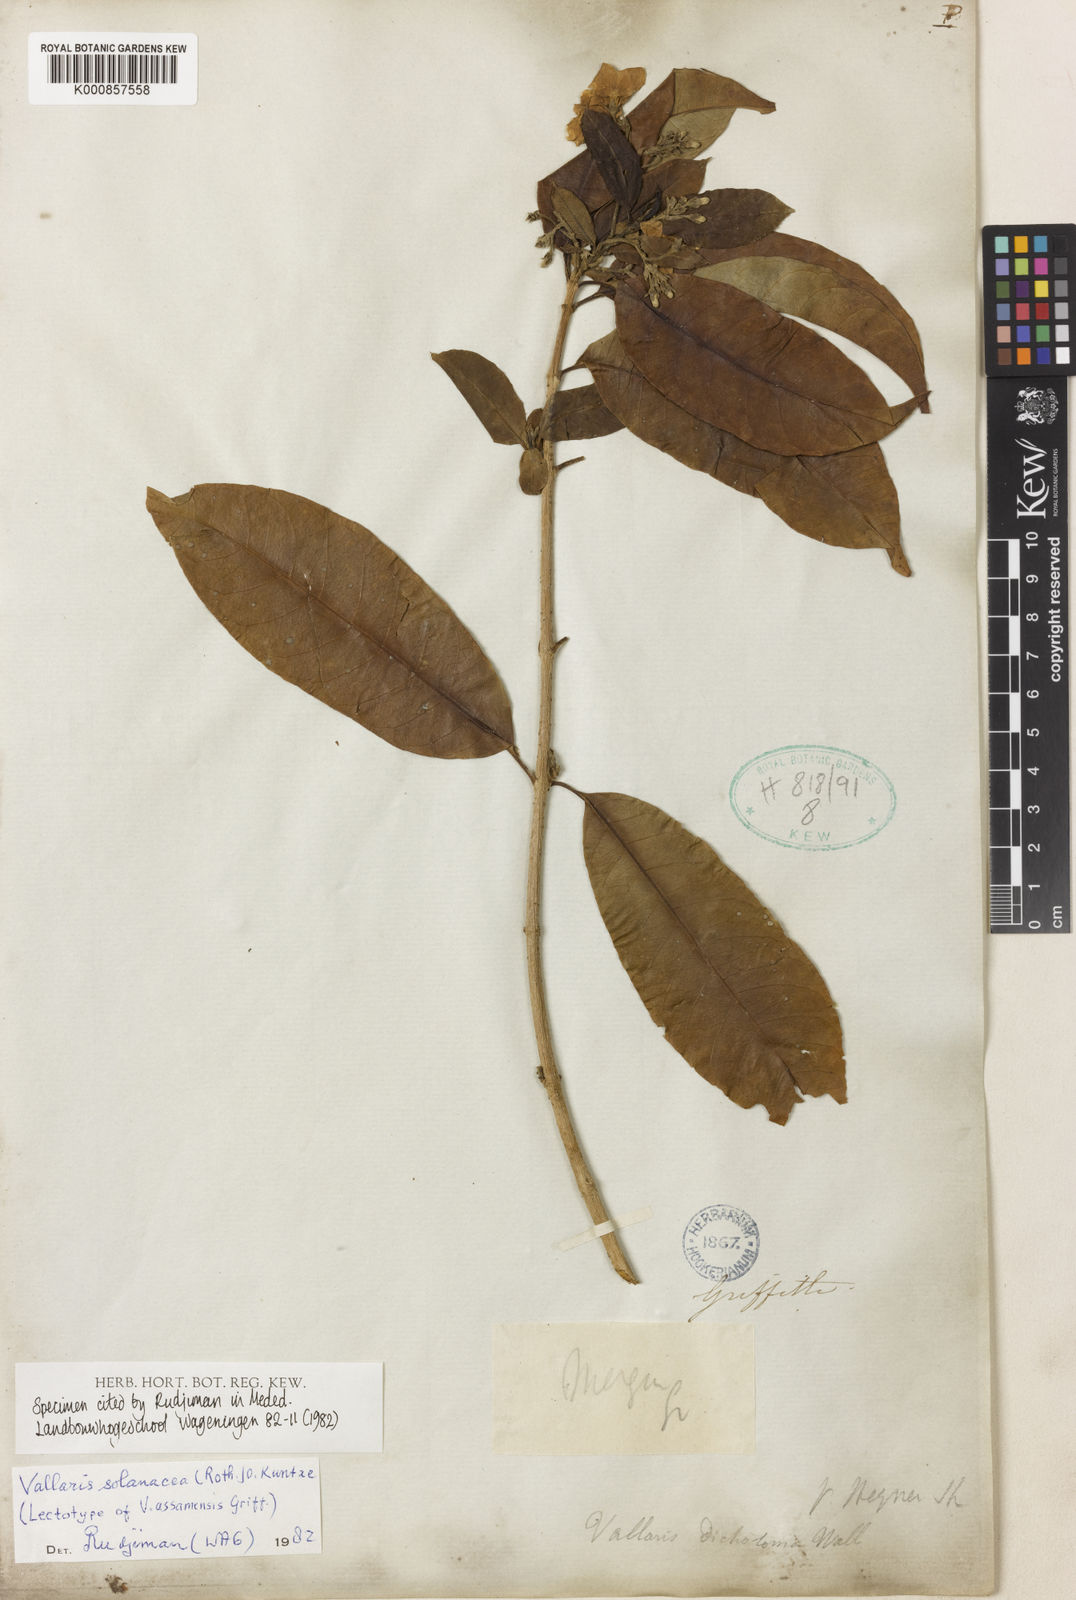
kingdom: Plantae
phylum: Tracheophyta
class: Magnoliopsida
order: Gentianales
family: Apocynaceae
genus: Vallaris
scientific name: Vallaris solanacea
